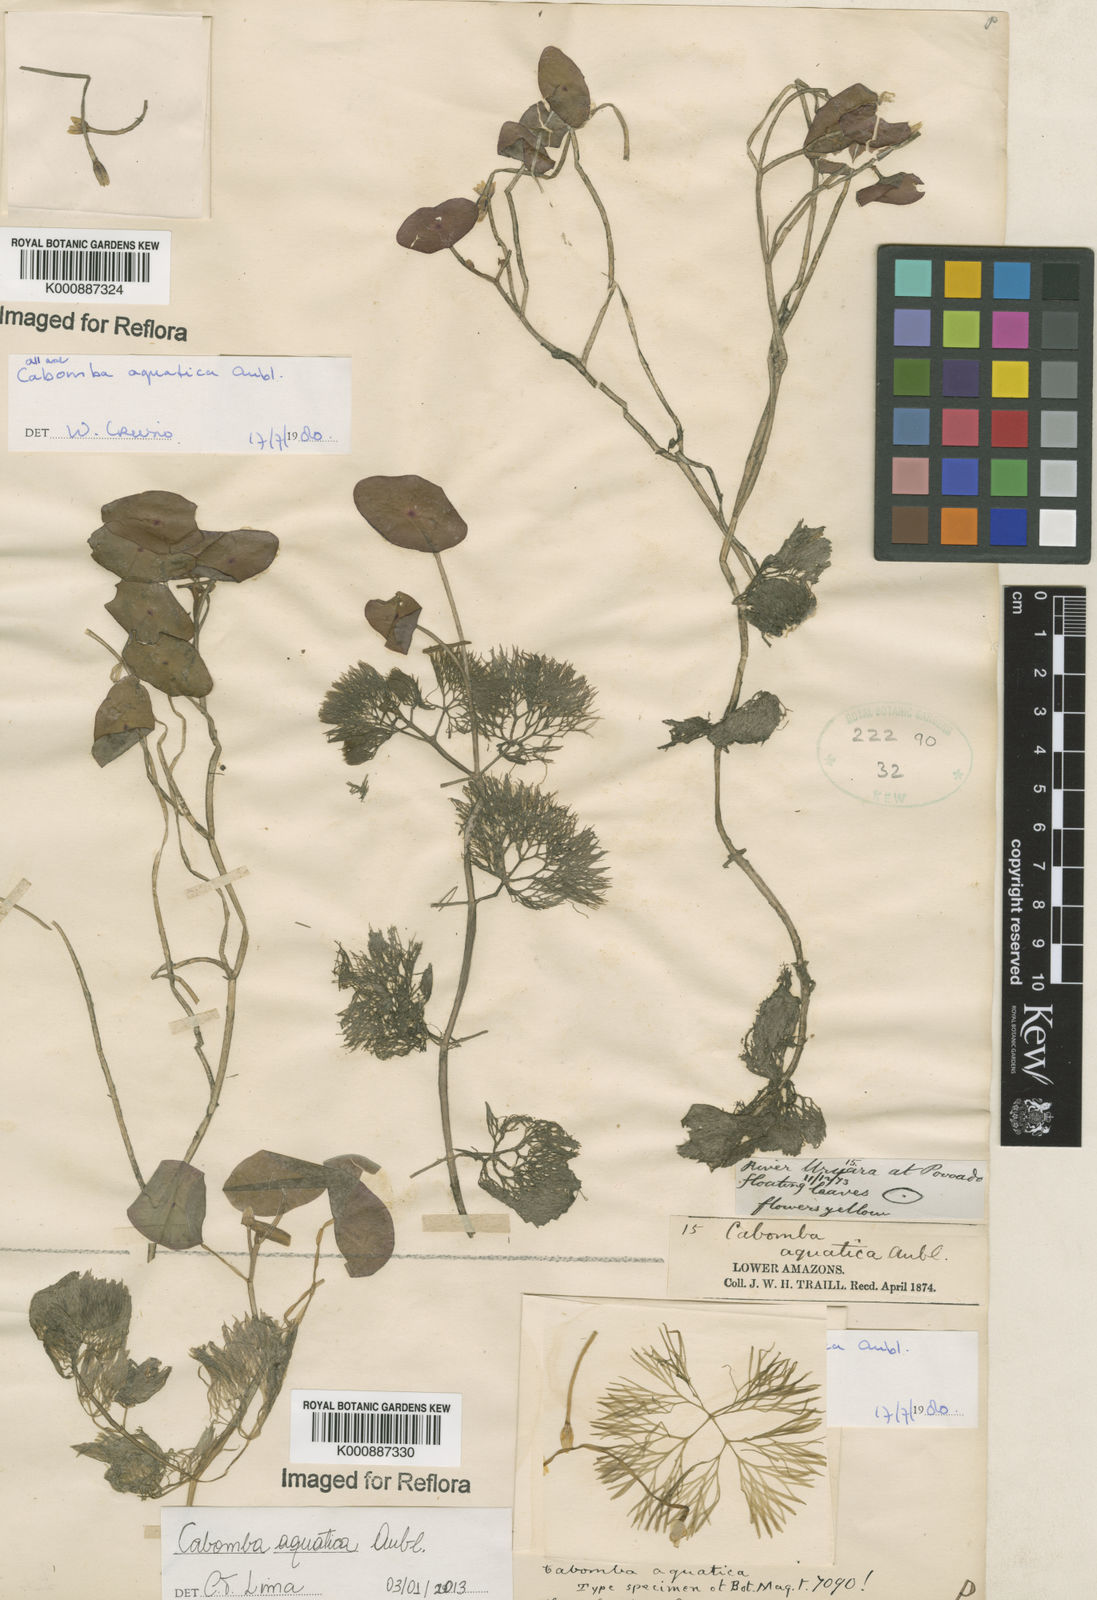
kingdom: Plantae
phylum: Tracheophyta
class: Magnoliopsida
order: Nymphaeales
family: Cabombaceae
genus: Cabomba
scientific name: Cabomba aquatica
